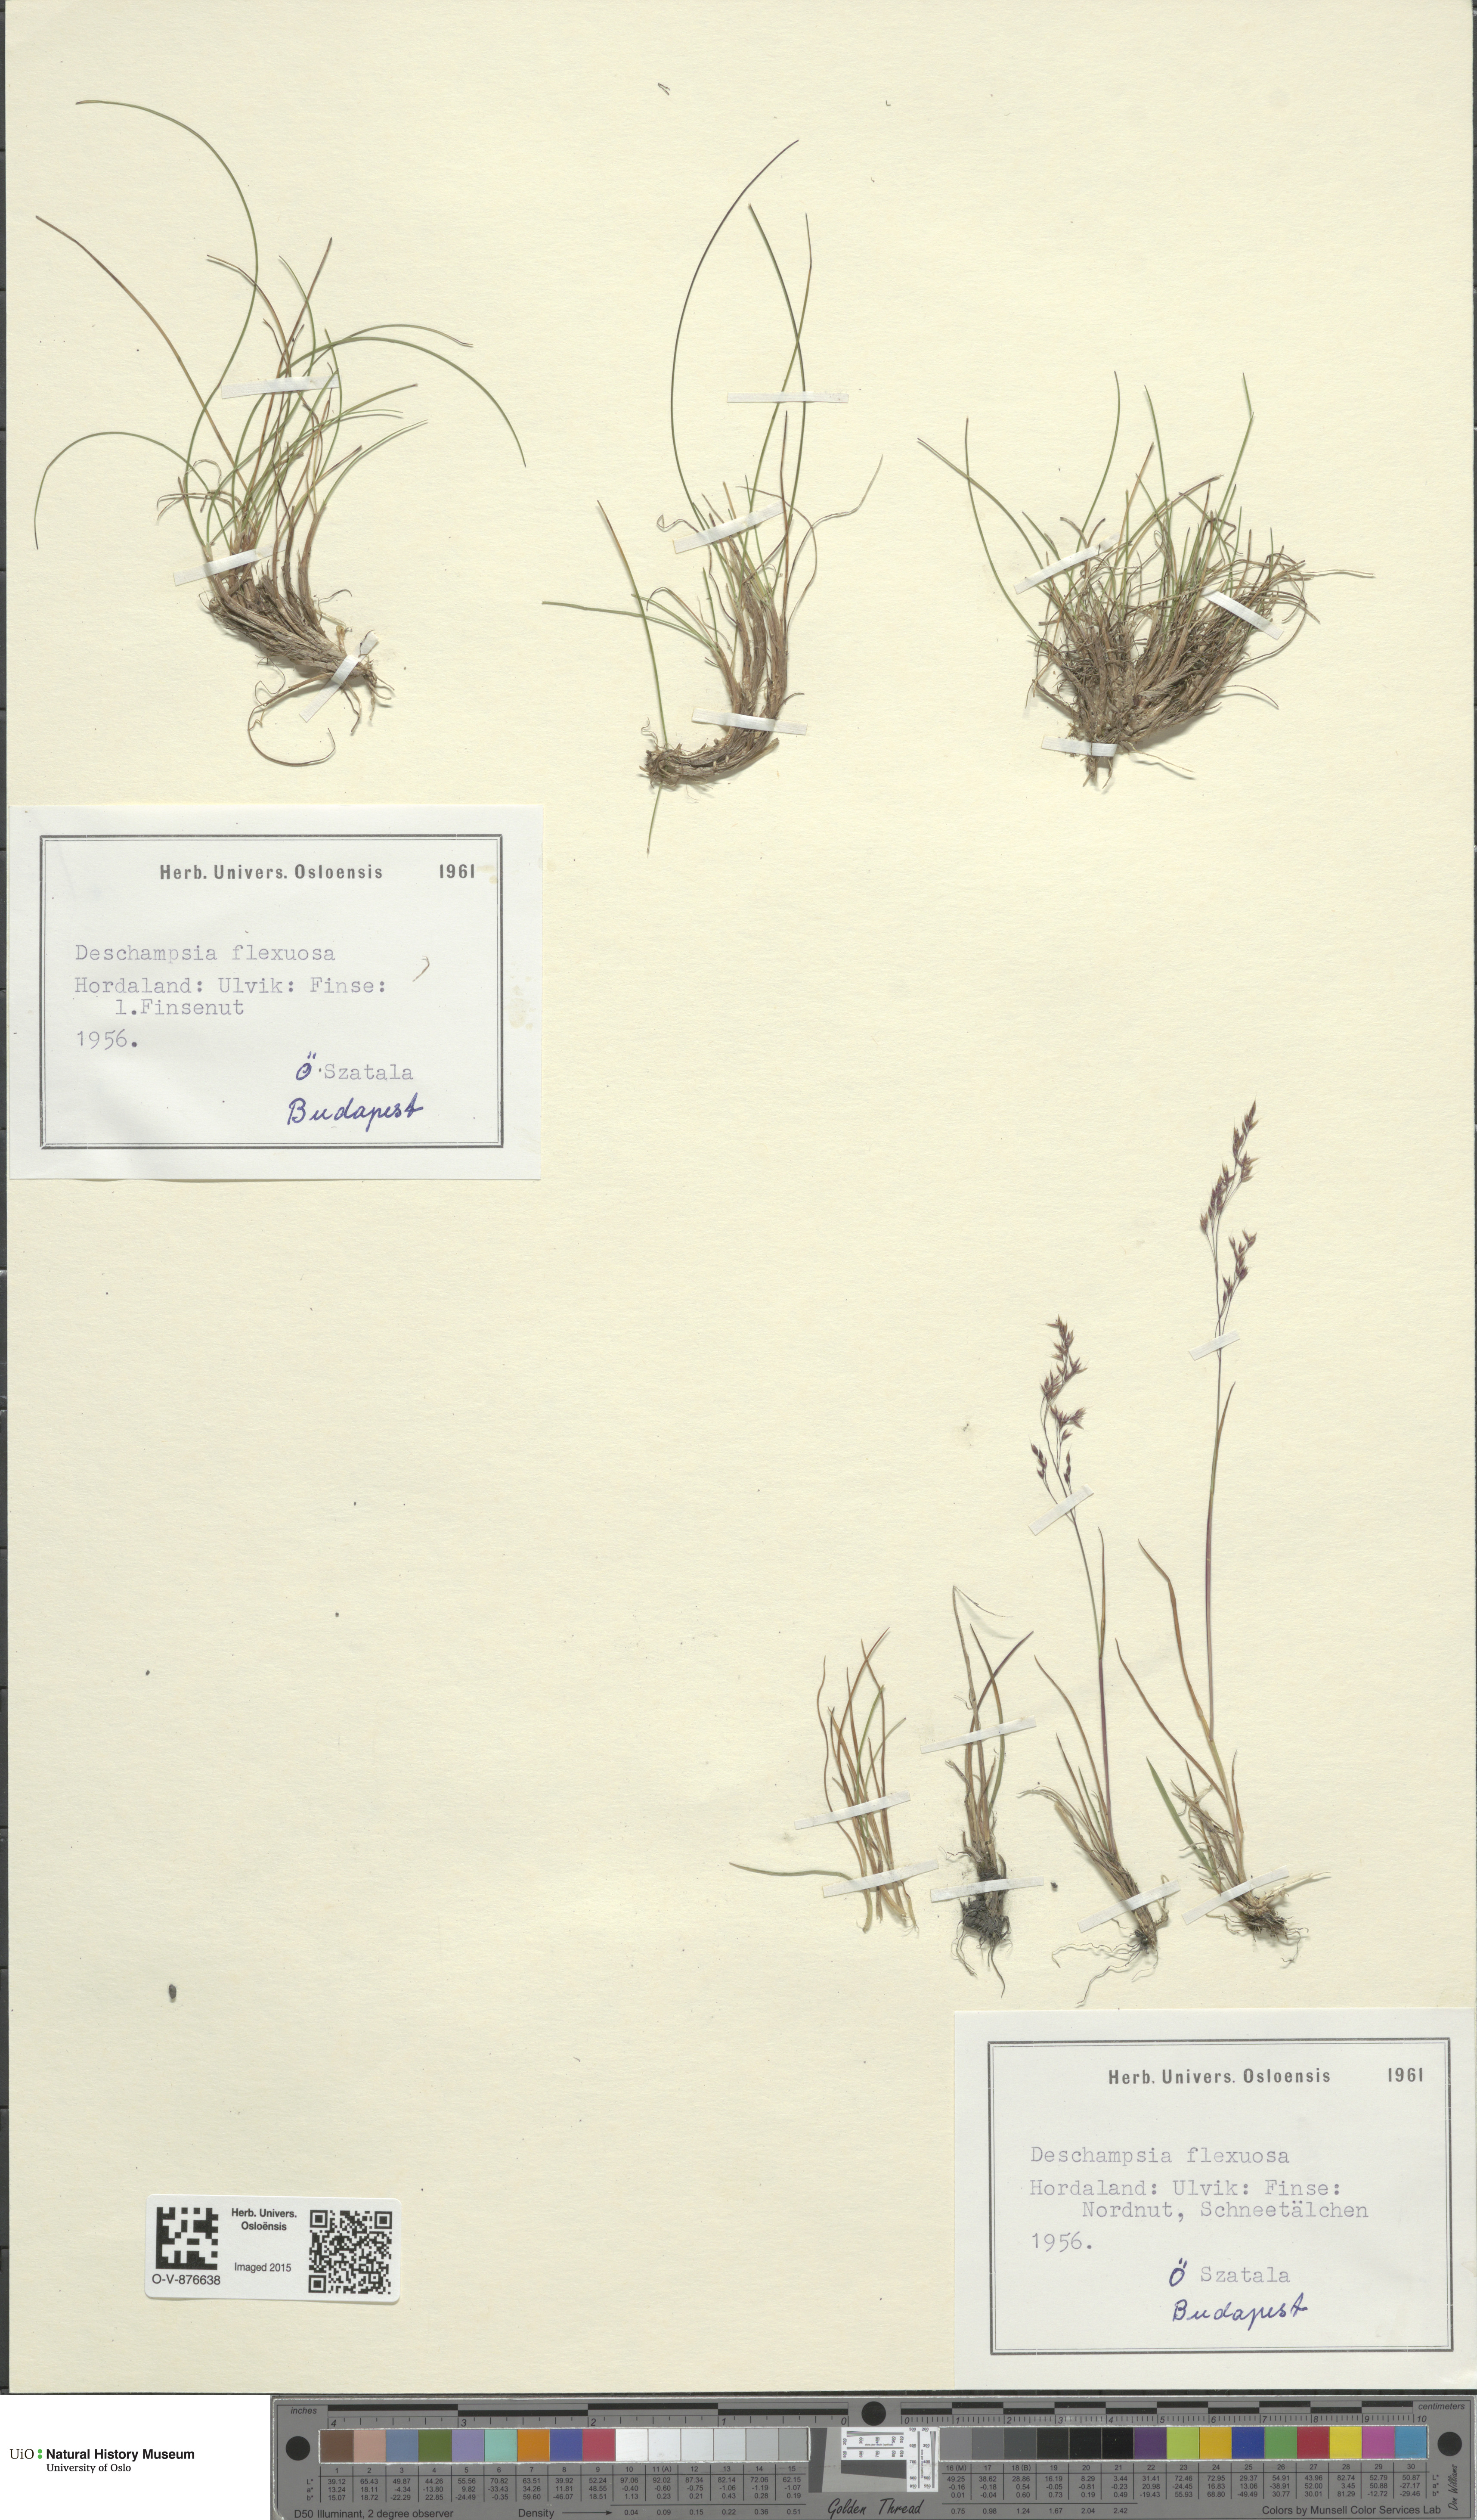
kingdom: Plantae
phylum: Tracheophyta
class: Liliopsida
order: Poales
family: Poaceae
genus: Avenella
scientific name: Avenella flexuosa
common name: Wavy hairgrass
